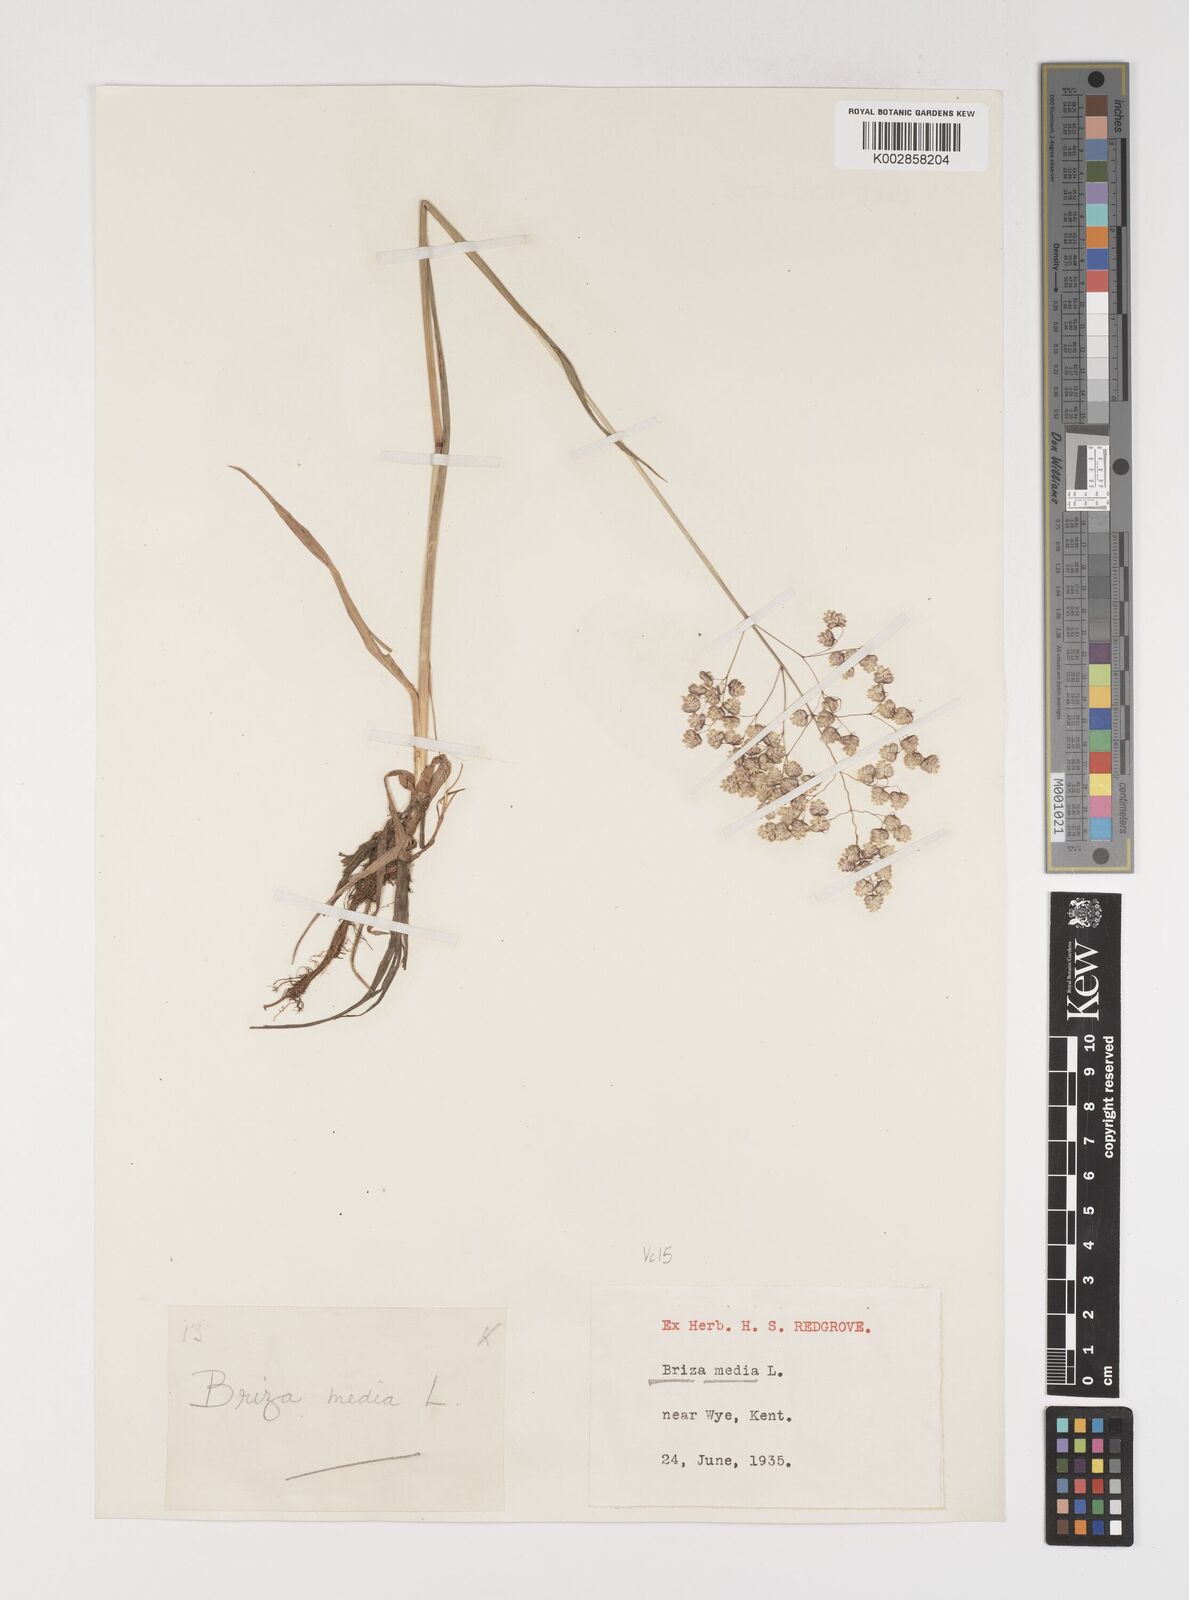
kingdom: Plantae
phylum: Tracheophyta
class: Liliopsida
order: Poales
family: Poaceae
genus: Briza
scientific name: Briza media
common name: Quaking grass
